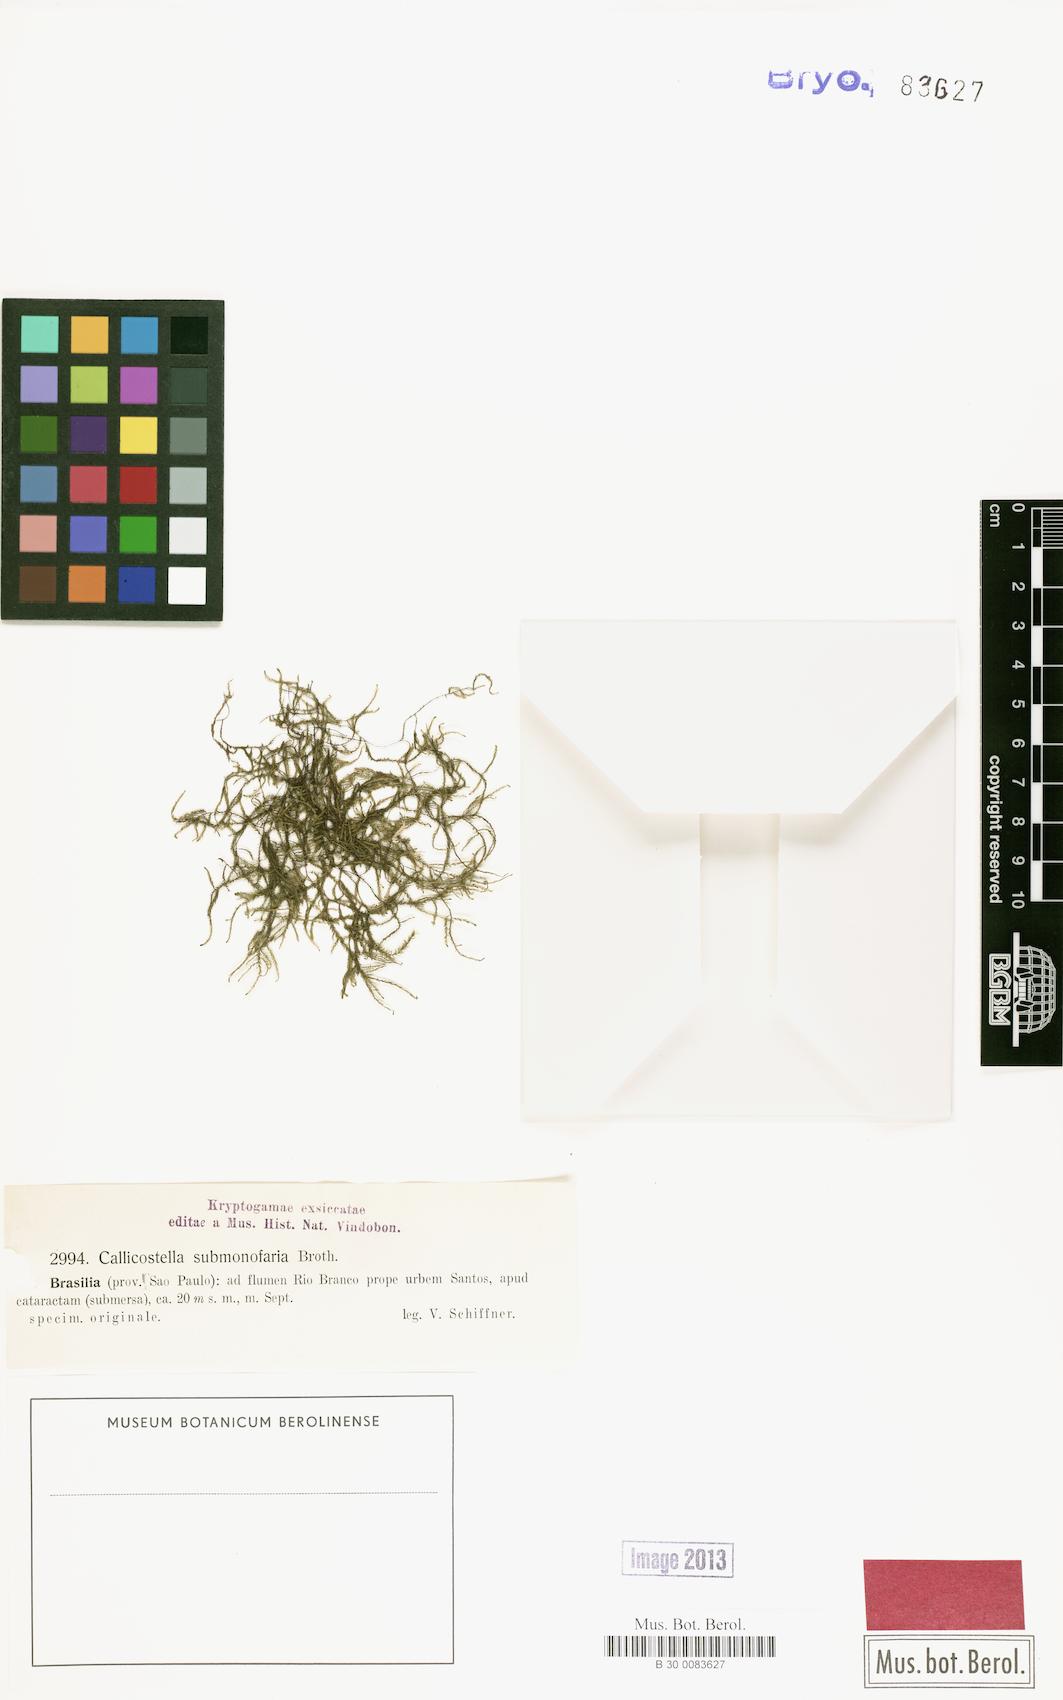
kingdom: Plantae
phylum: Bryophyta
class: Bryopsida
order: Hookeriales
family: Pilotrichaceae
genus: Callicostella
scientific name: Callicostella submonofaria
